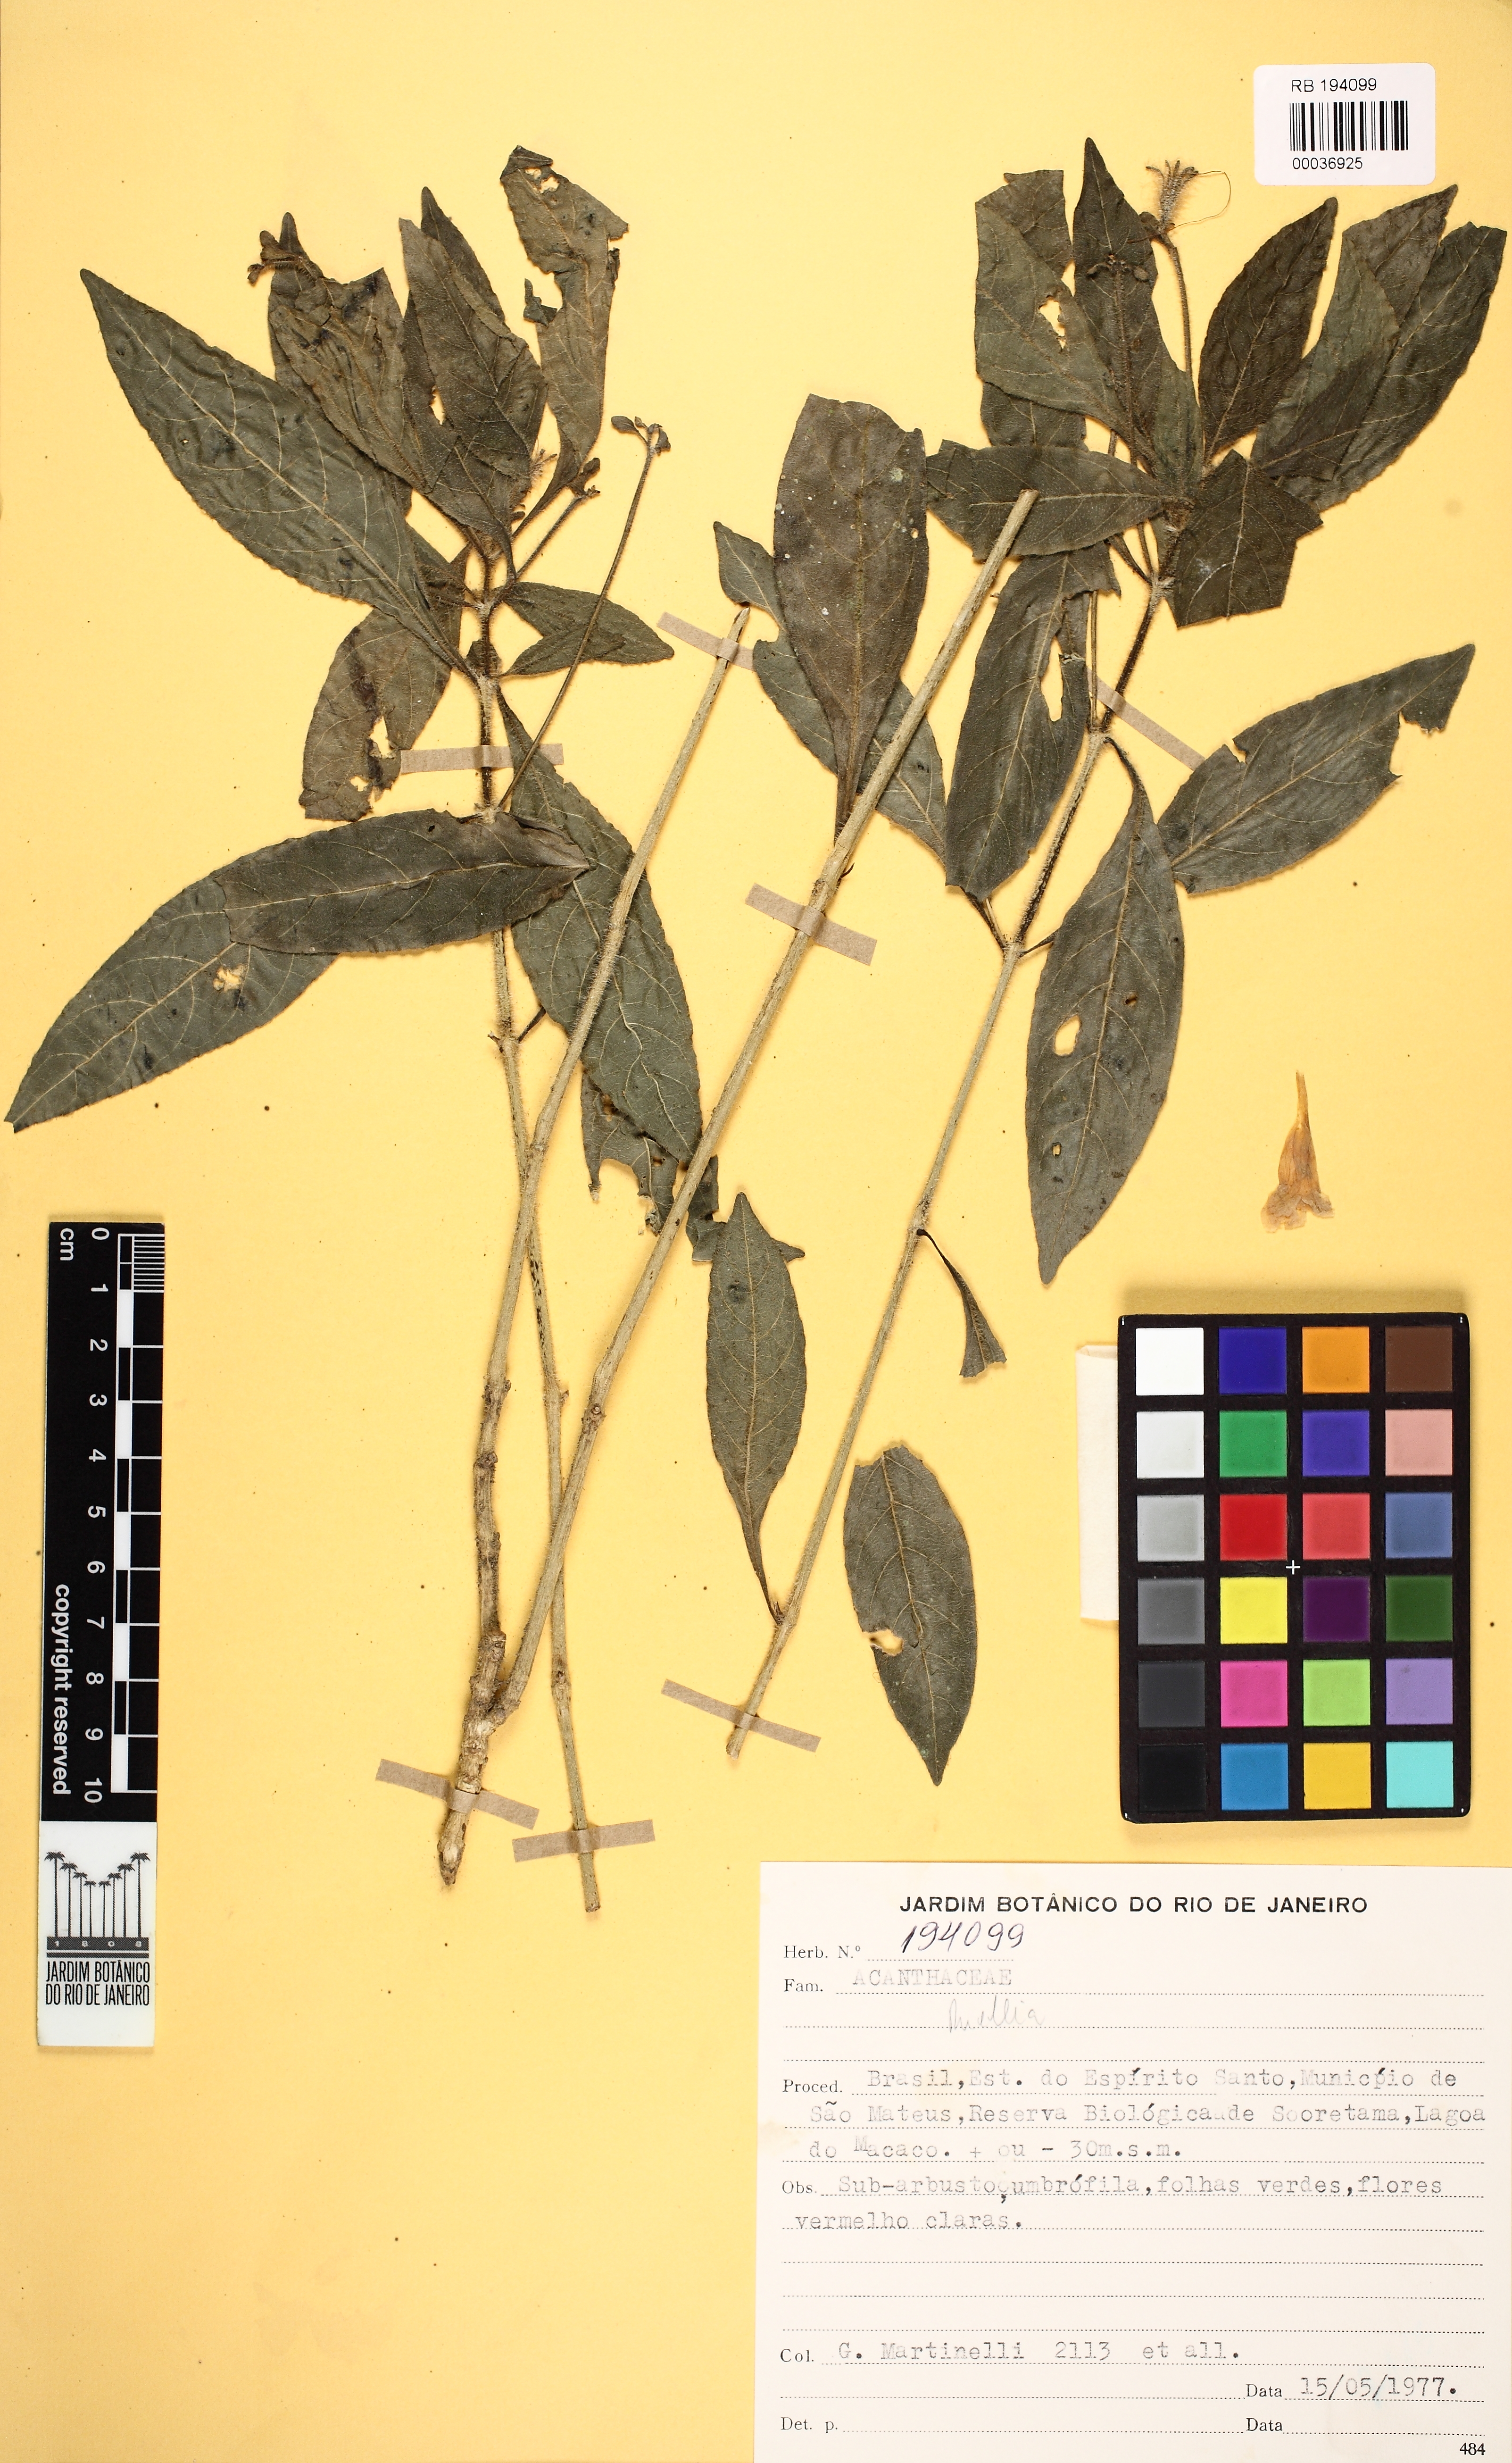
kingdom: Plantae
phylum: Tracheophyta
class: Magnoliopsida
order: Lamiales
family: Acanthaceae
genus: Ruellia
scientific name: Ruellia
